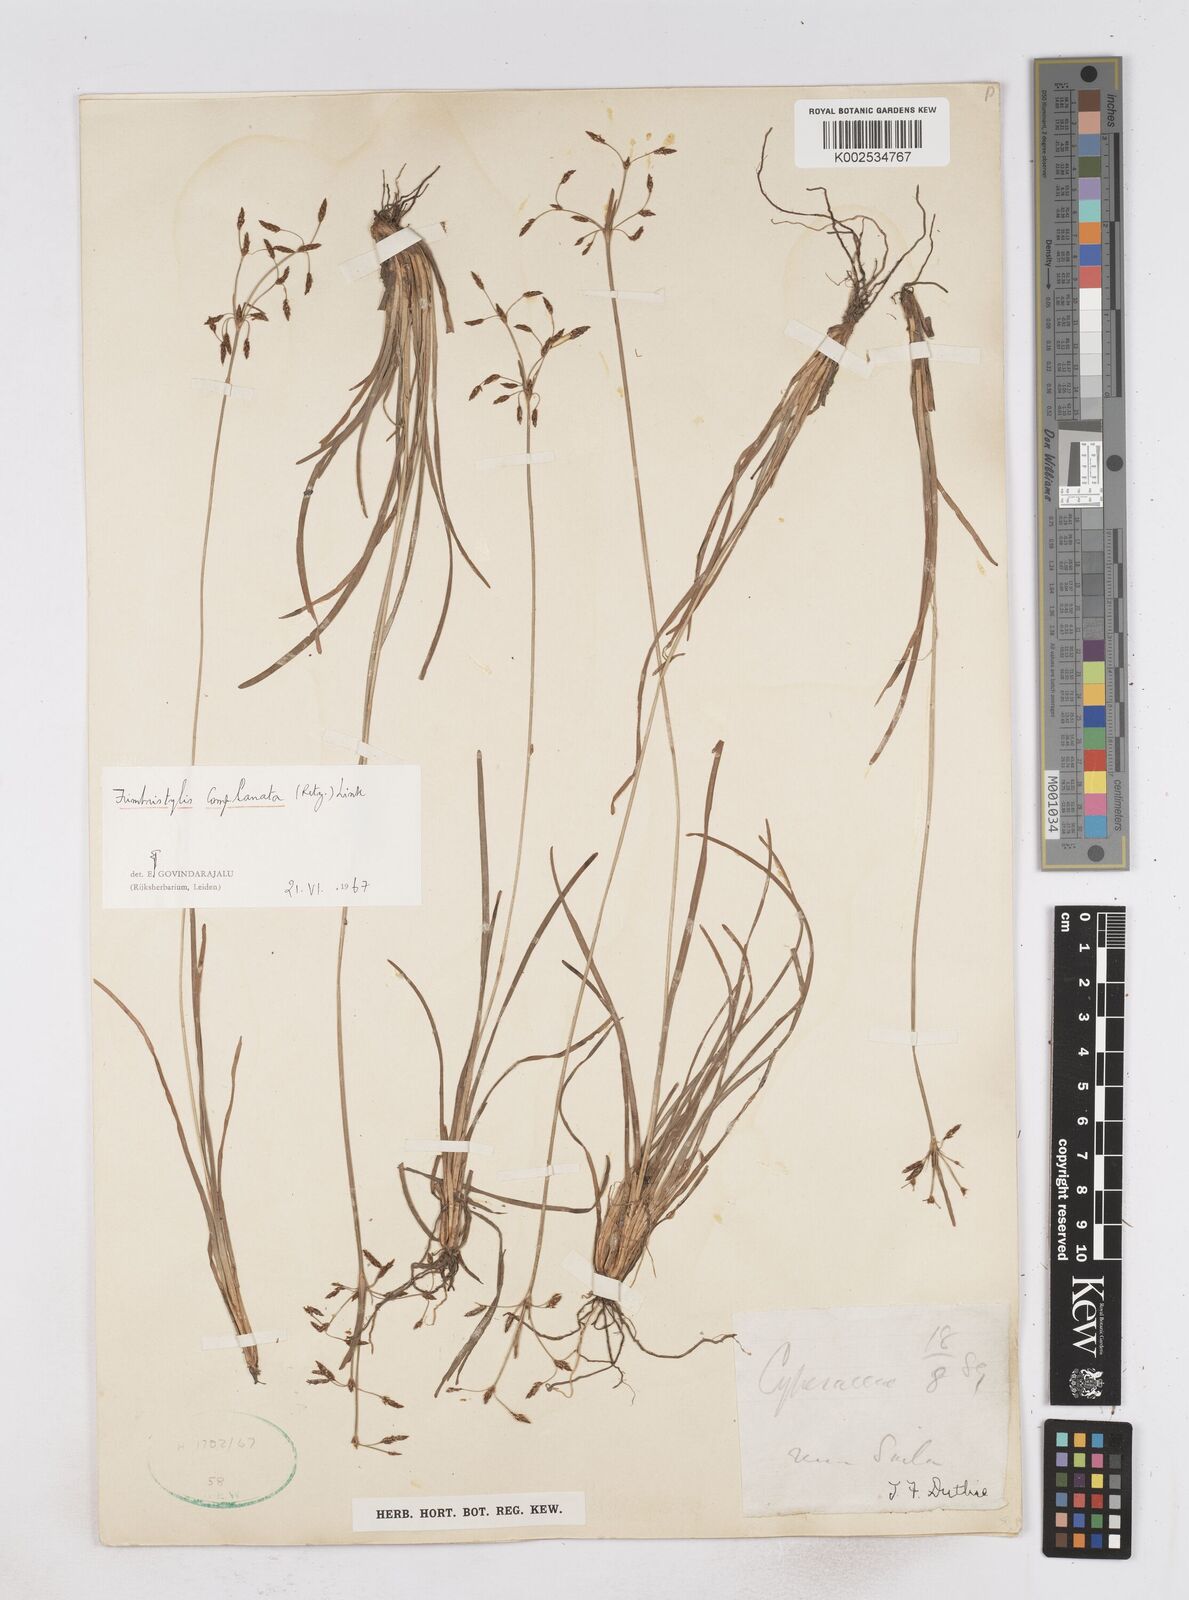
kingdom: Plantae
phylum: Tracheophyta
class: Liliopsida
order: Poales
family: Cyperaceae
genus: Fimbristylis
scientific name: Fimbristylis complanata
